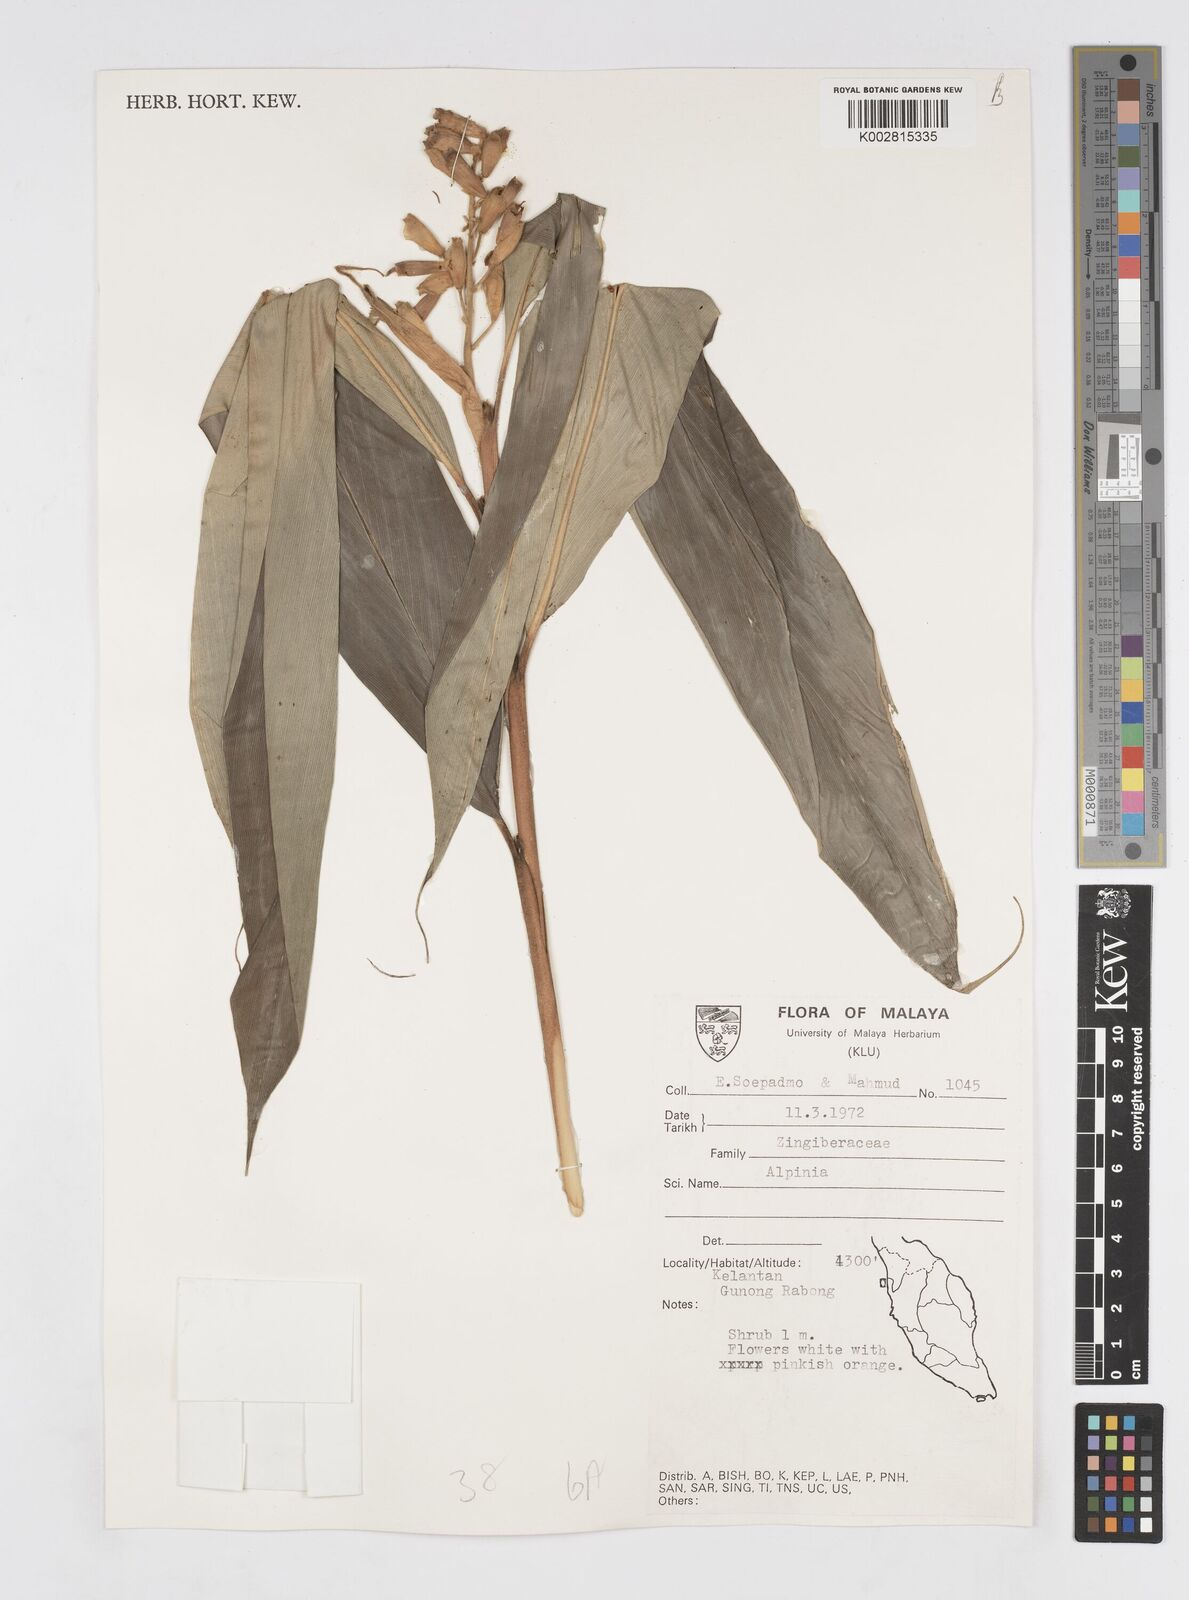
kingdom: Plantae
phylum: Tracheophyta
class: Liliopsida
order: Zingiberales
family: Zingiberaceae
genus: Alpinia
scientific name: Alpinia
